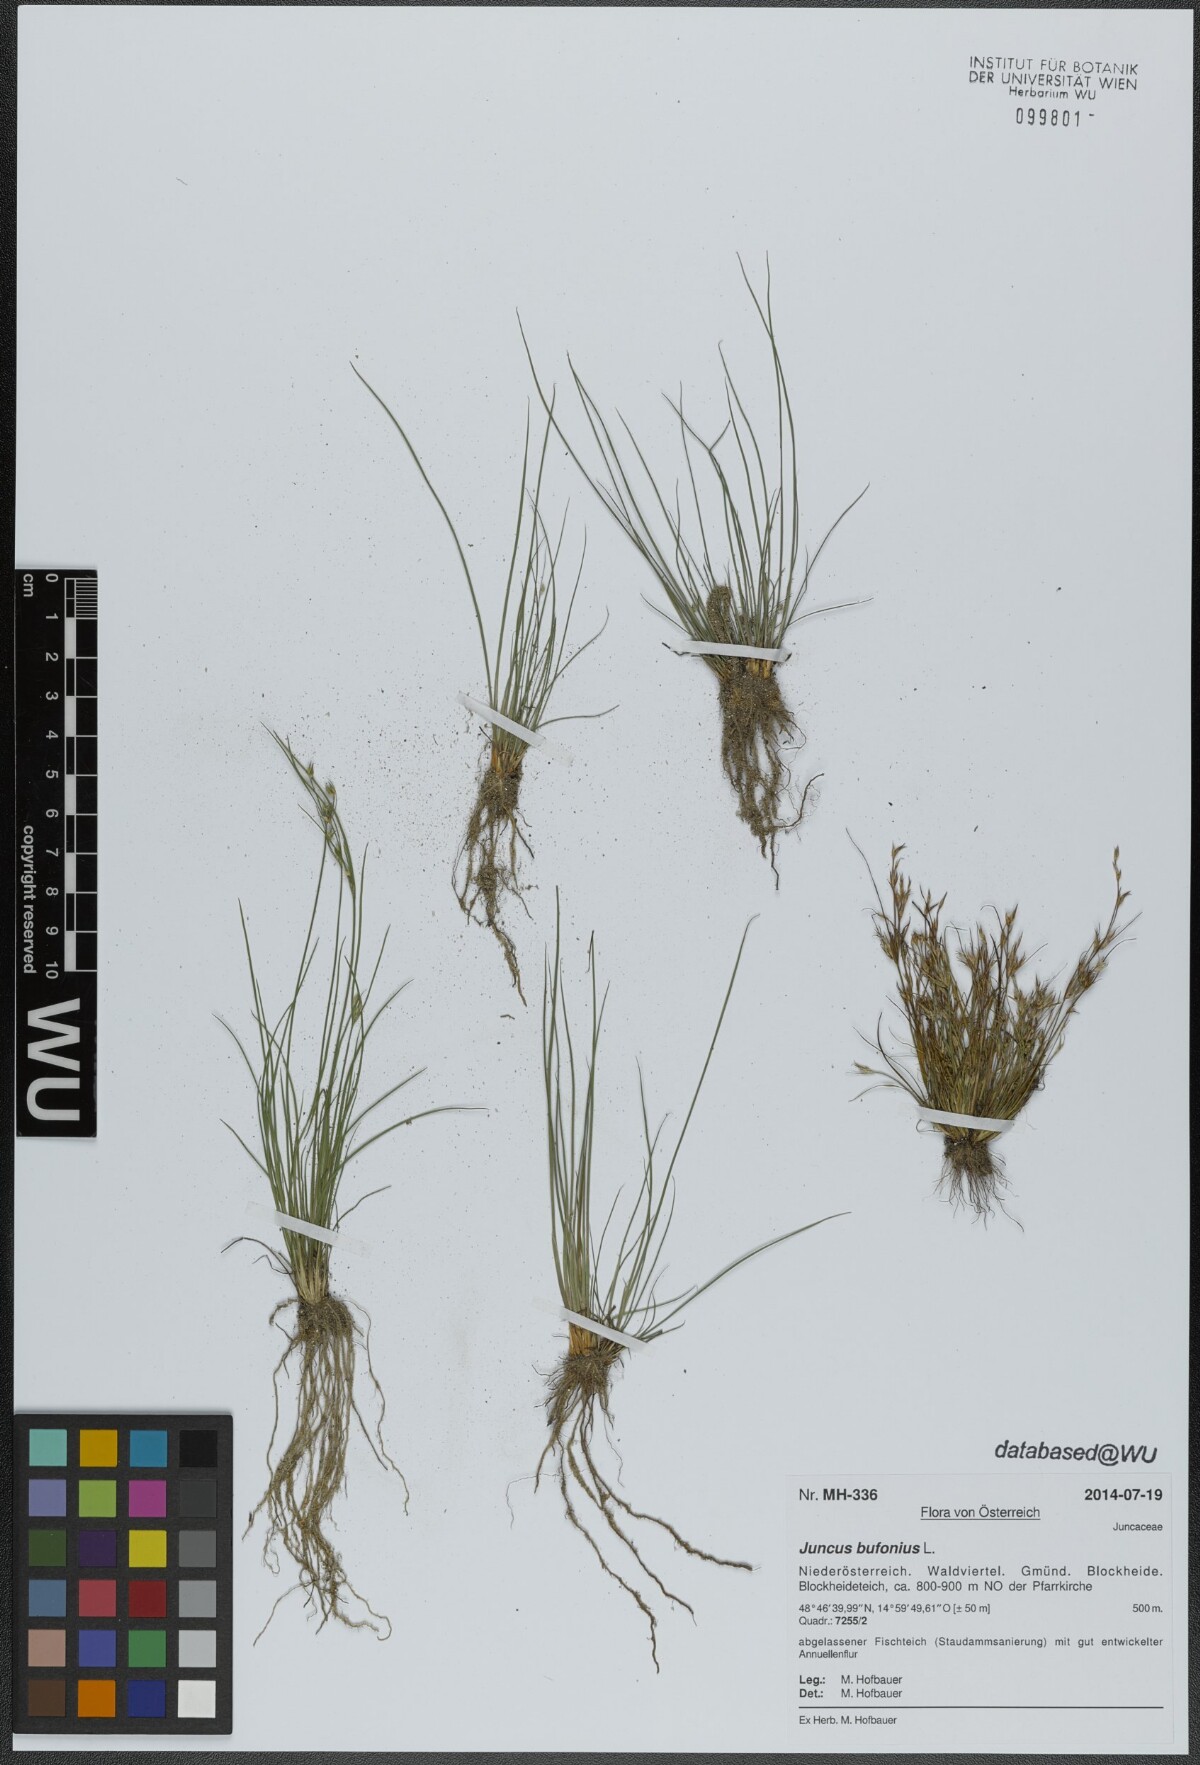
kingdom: Plantae
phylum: Tracheophyta
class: Liliopsida
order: Poales
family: Juncaceae
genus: Juncus
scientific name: Juncus bufonius
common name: Toad rush
